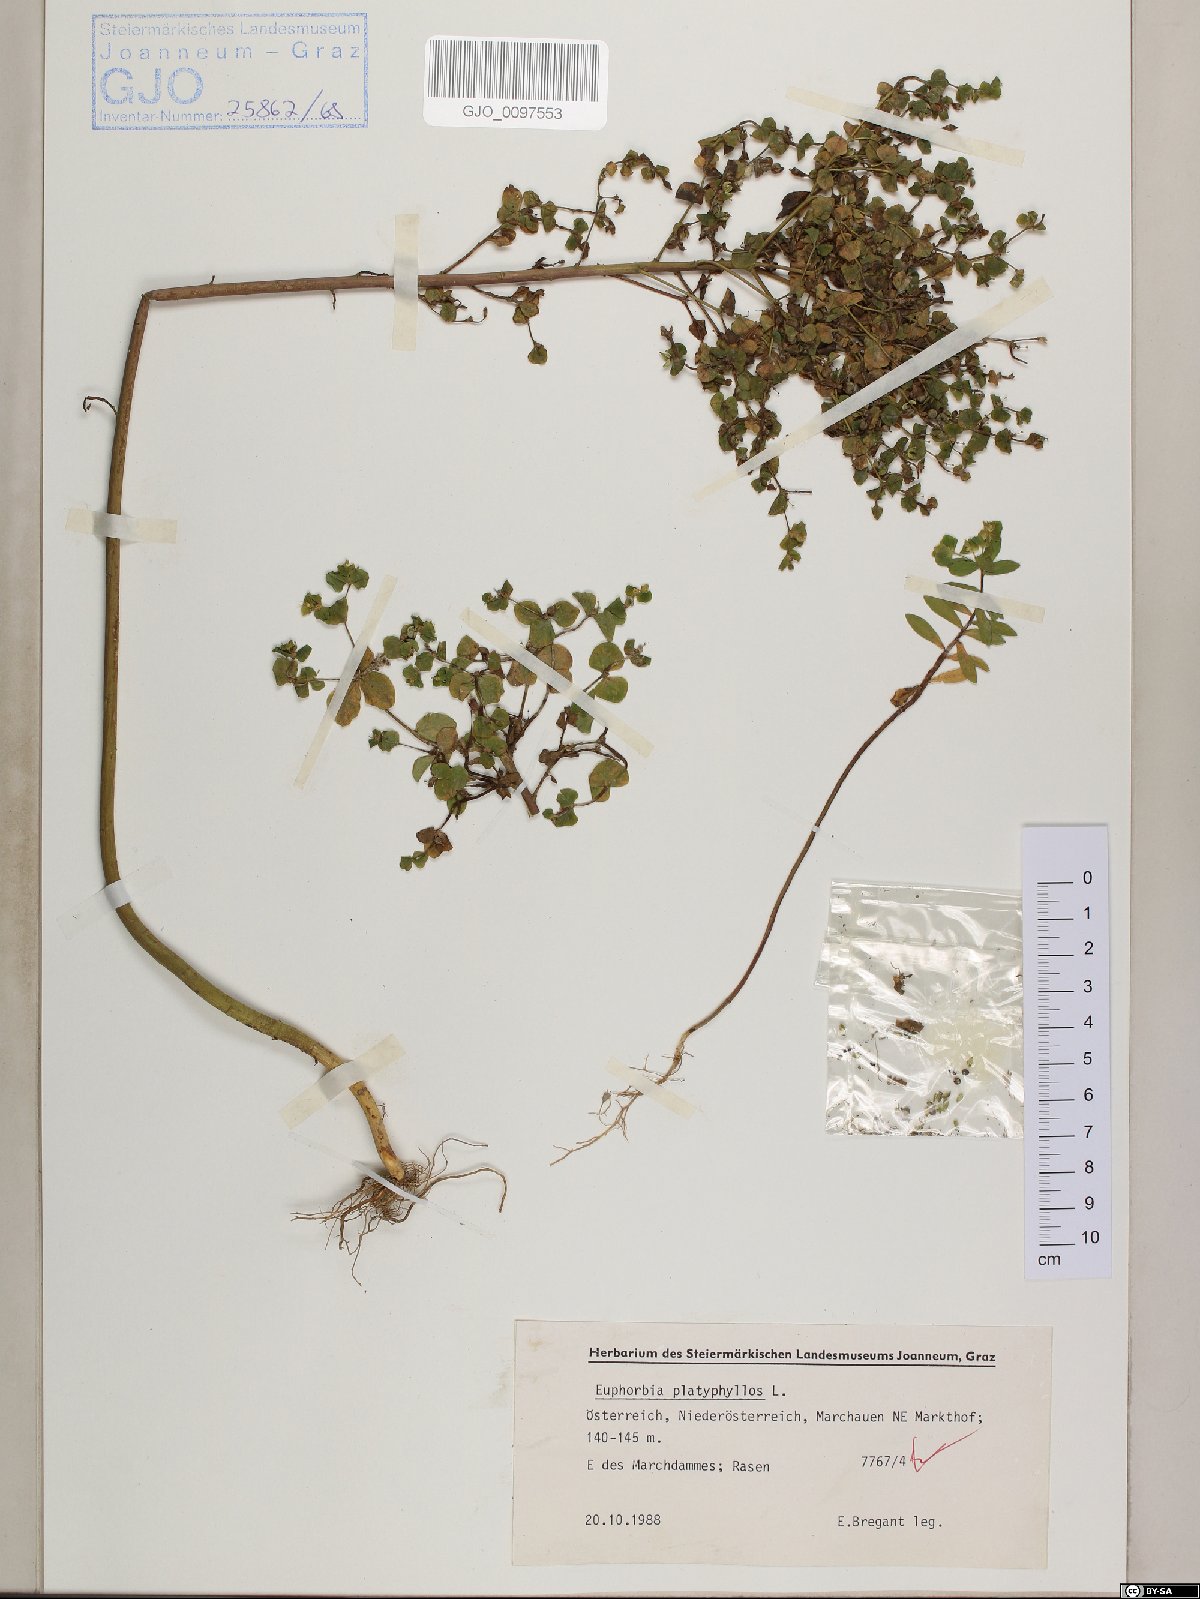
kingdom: Plantae
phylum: Tracheophyta
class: Magnoliopsida
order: Malpighiales
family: Euphorbiaceae
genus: Euphorbia
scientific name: Euphorbia platyphyllos
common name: Broad-leaved spurge
